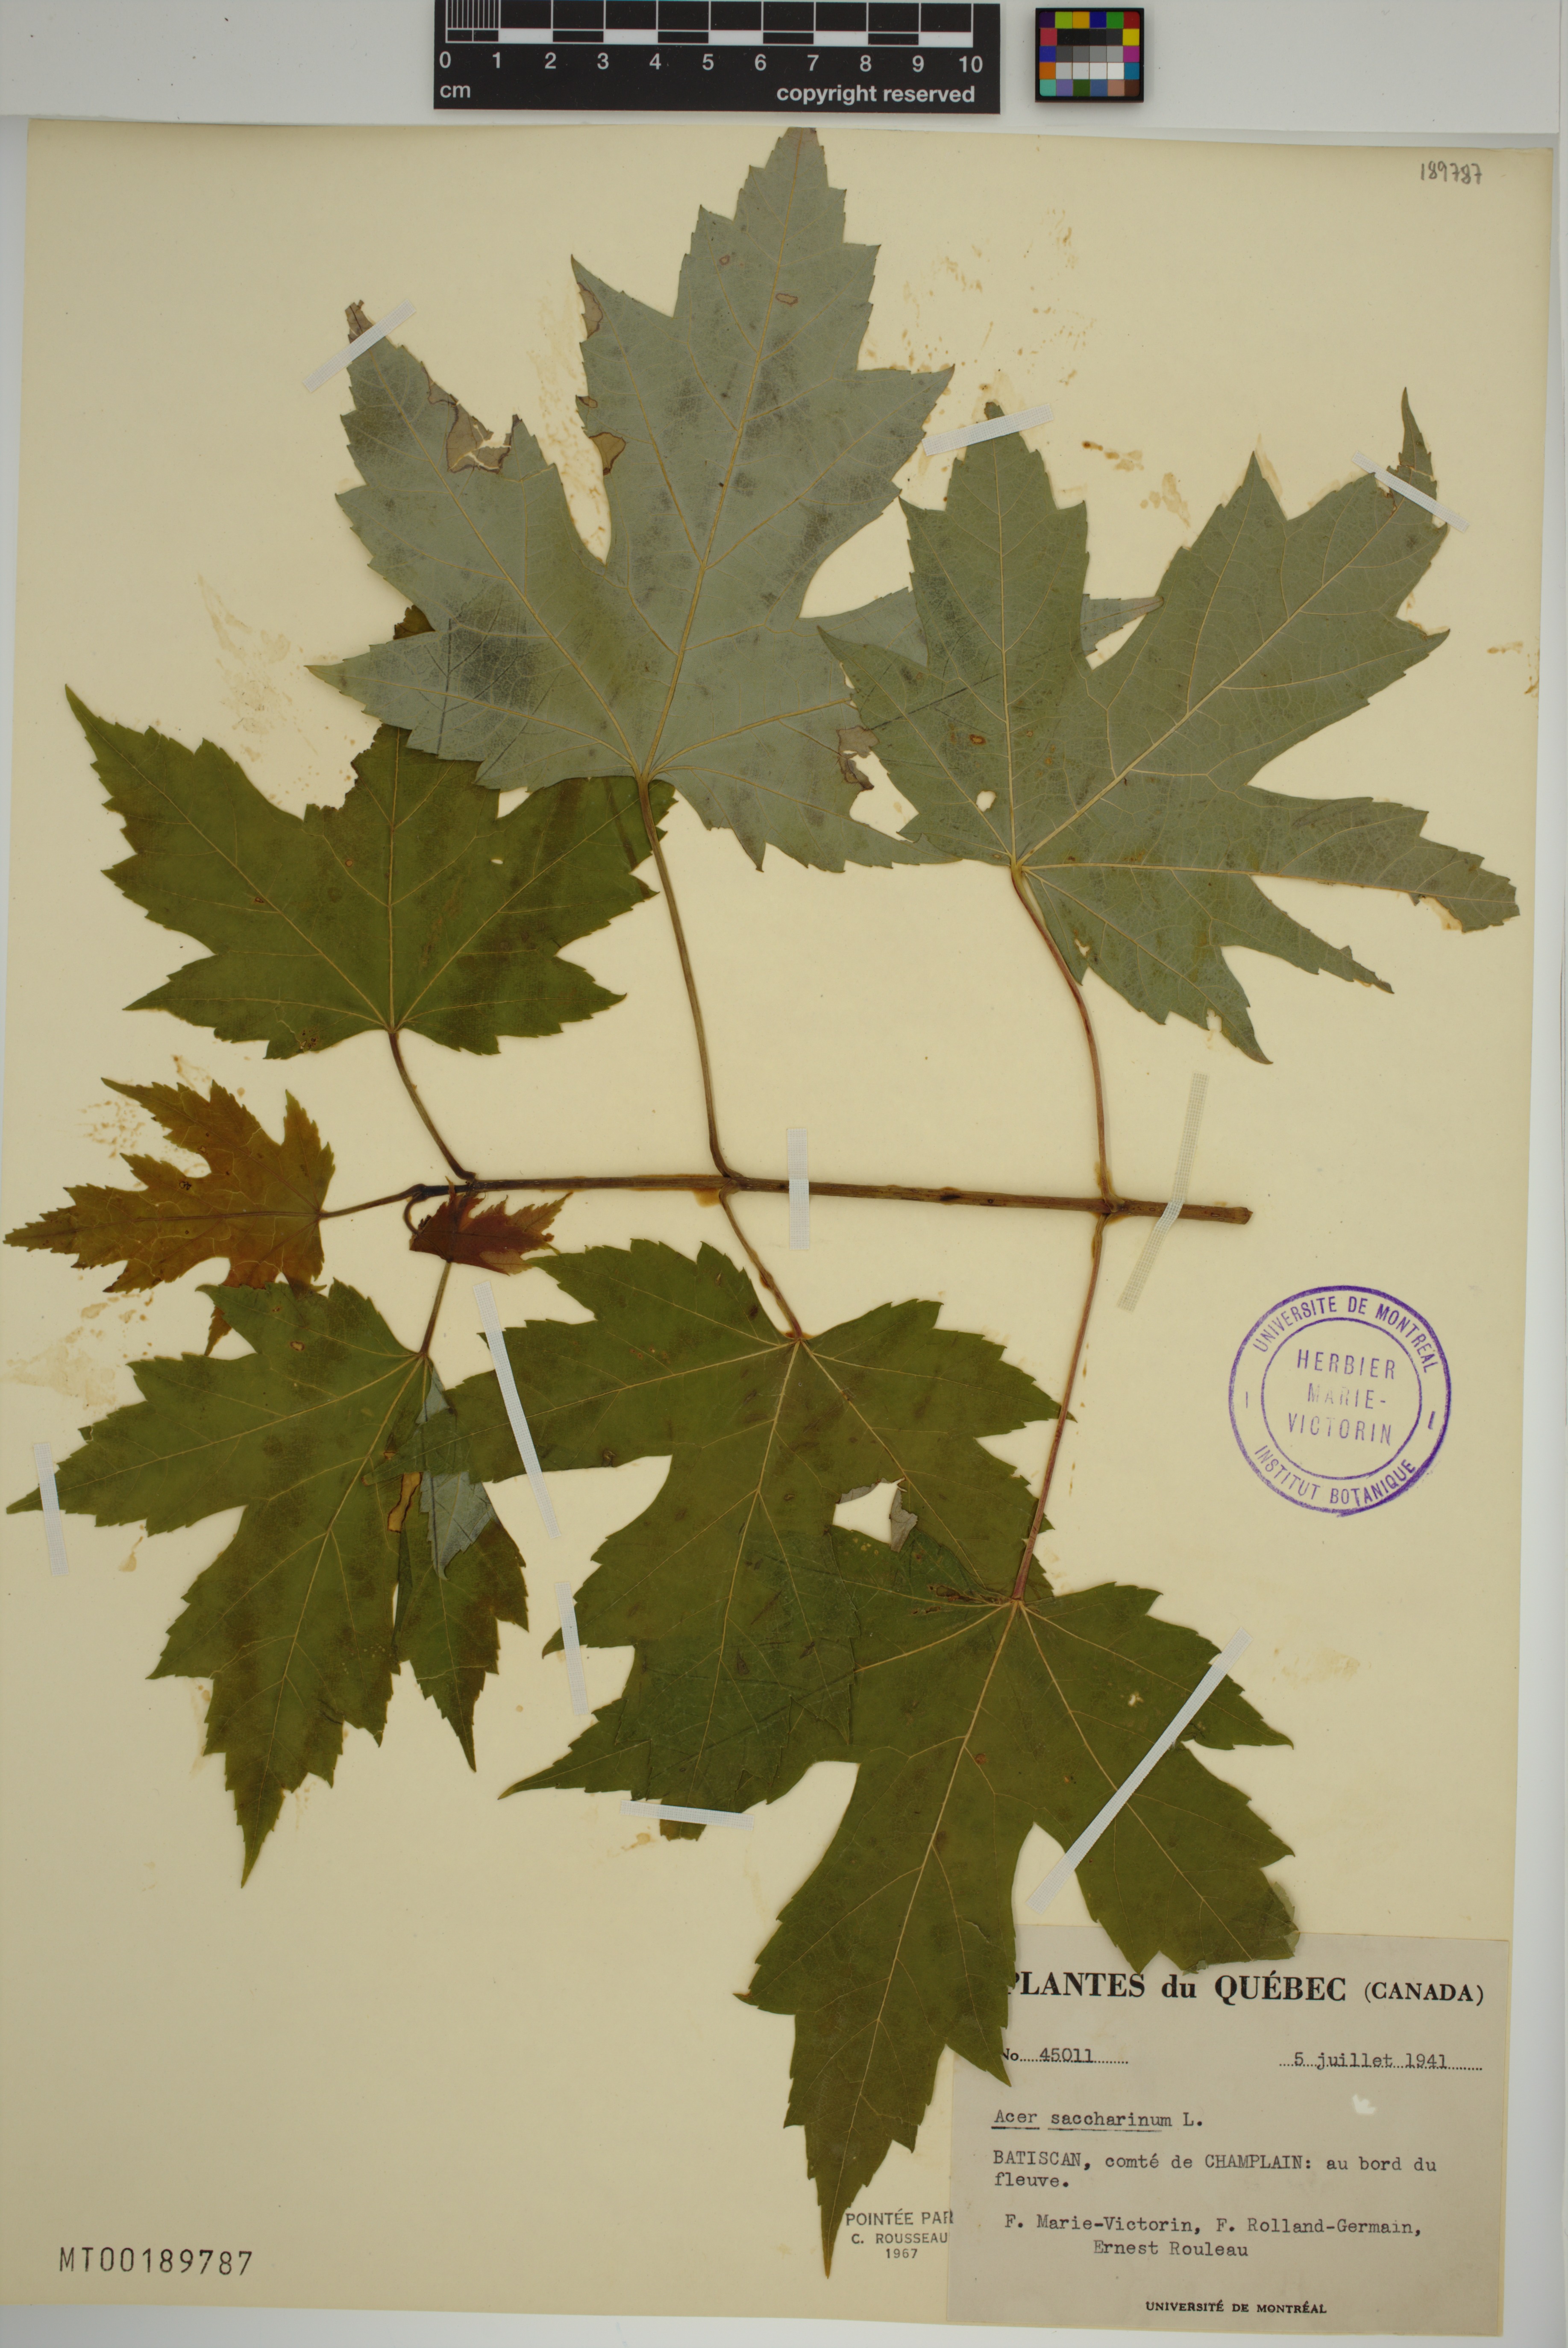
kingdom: Plantae
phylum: Tracheophyta
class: Magnoliopsida
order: Sapindales
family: Sapindaceae
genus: Acer
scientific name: Acer saccharinum
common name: Silver maple
